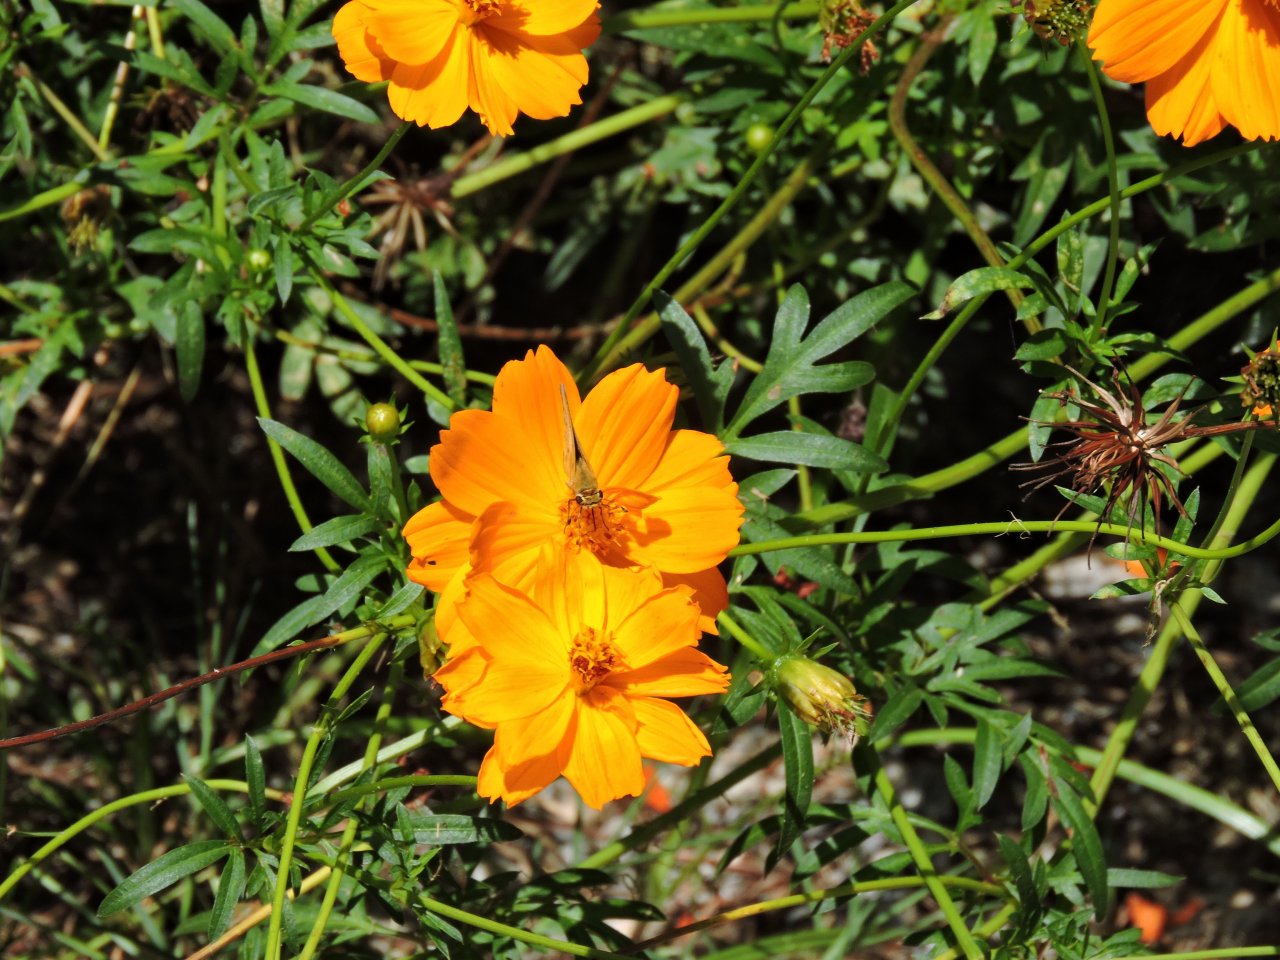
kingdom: Animalia
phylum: Arthropoda
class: Insecta
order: Lepidoptera
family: Hesperiidae
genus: Hylephila
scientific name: Hylephila phyleus
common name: Fiery Skipper
